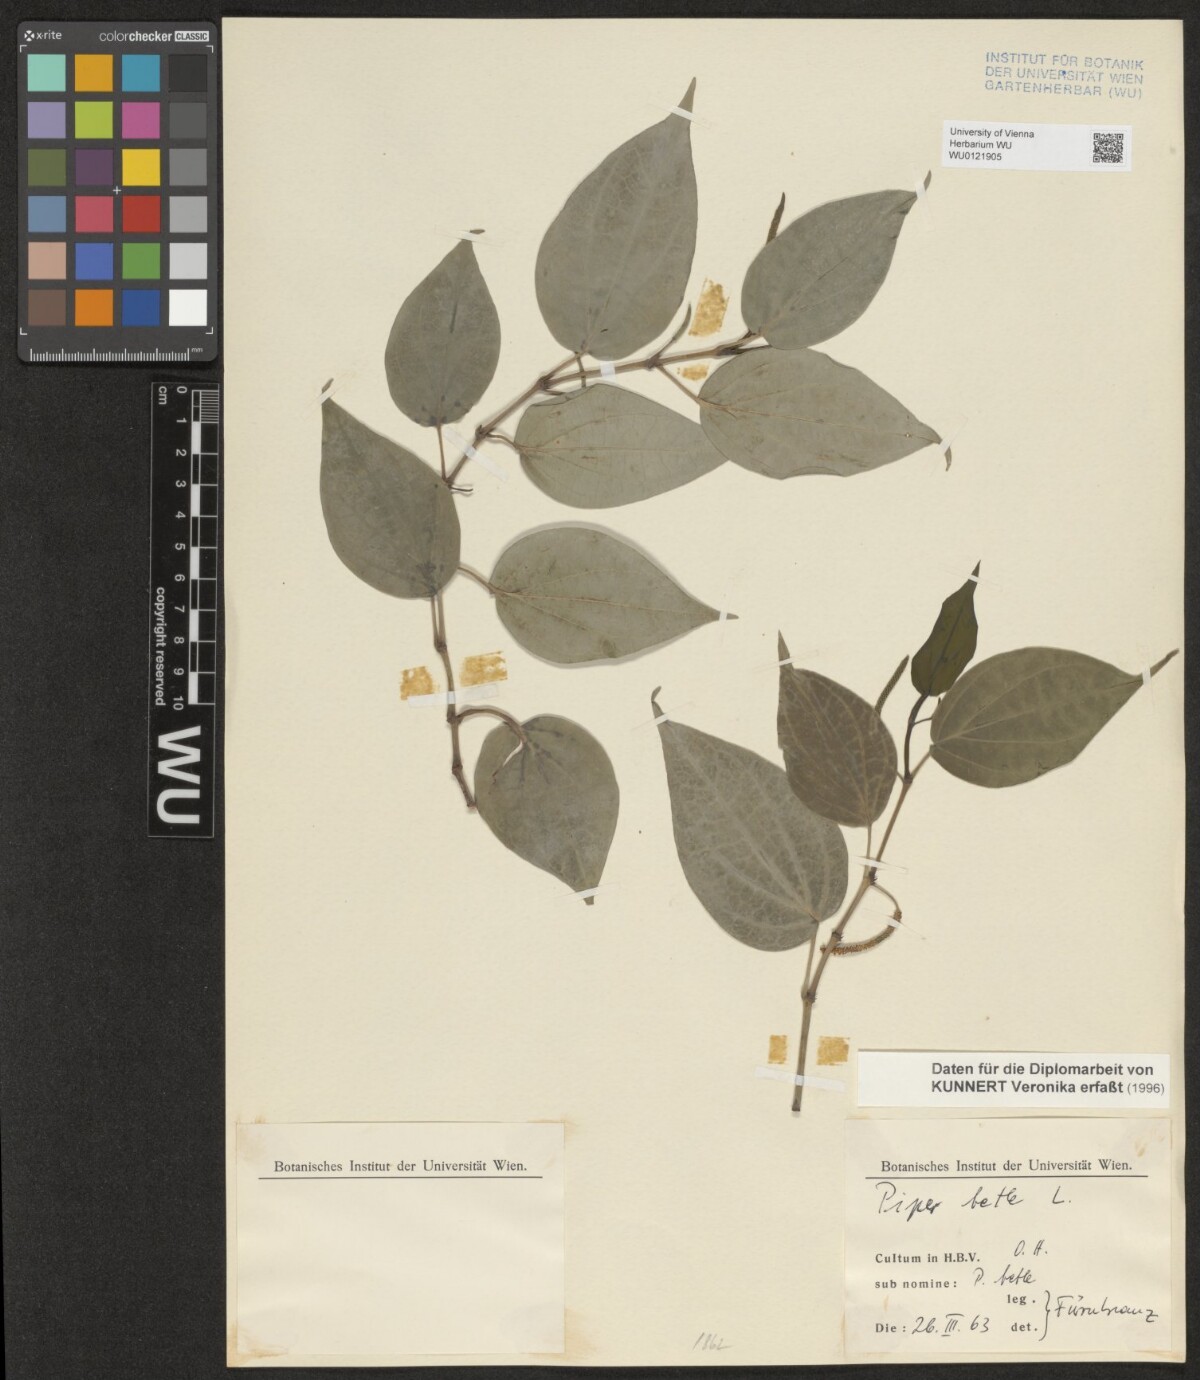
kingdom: Plantae
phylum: Tracheophyta
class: Magnoliopsida
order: Piperales
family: Piperaceae
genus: Piper
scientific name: Piper betle
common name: Betel pepper
